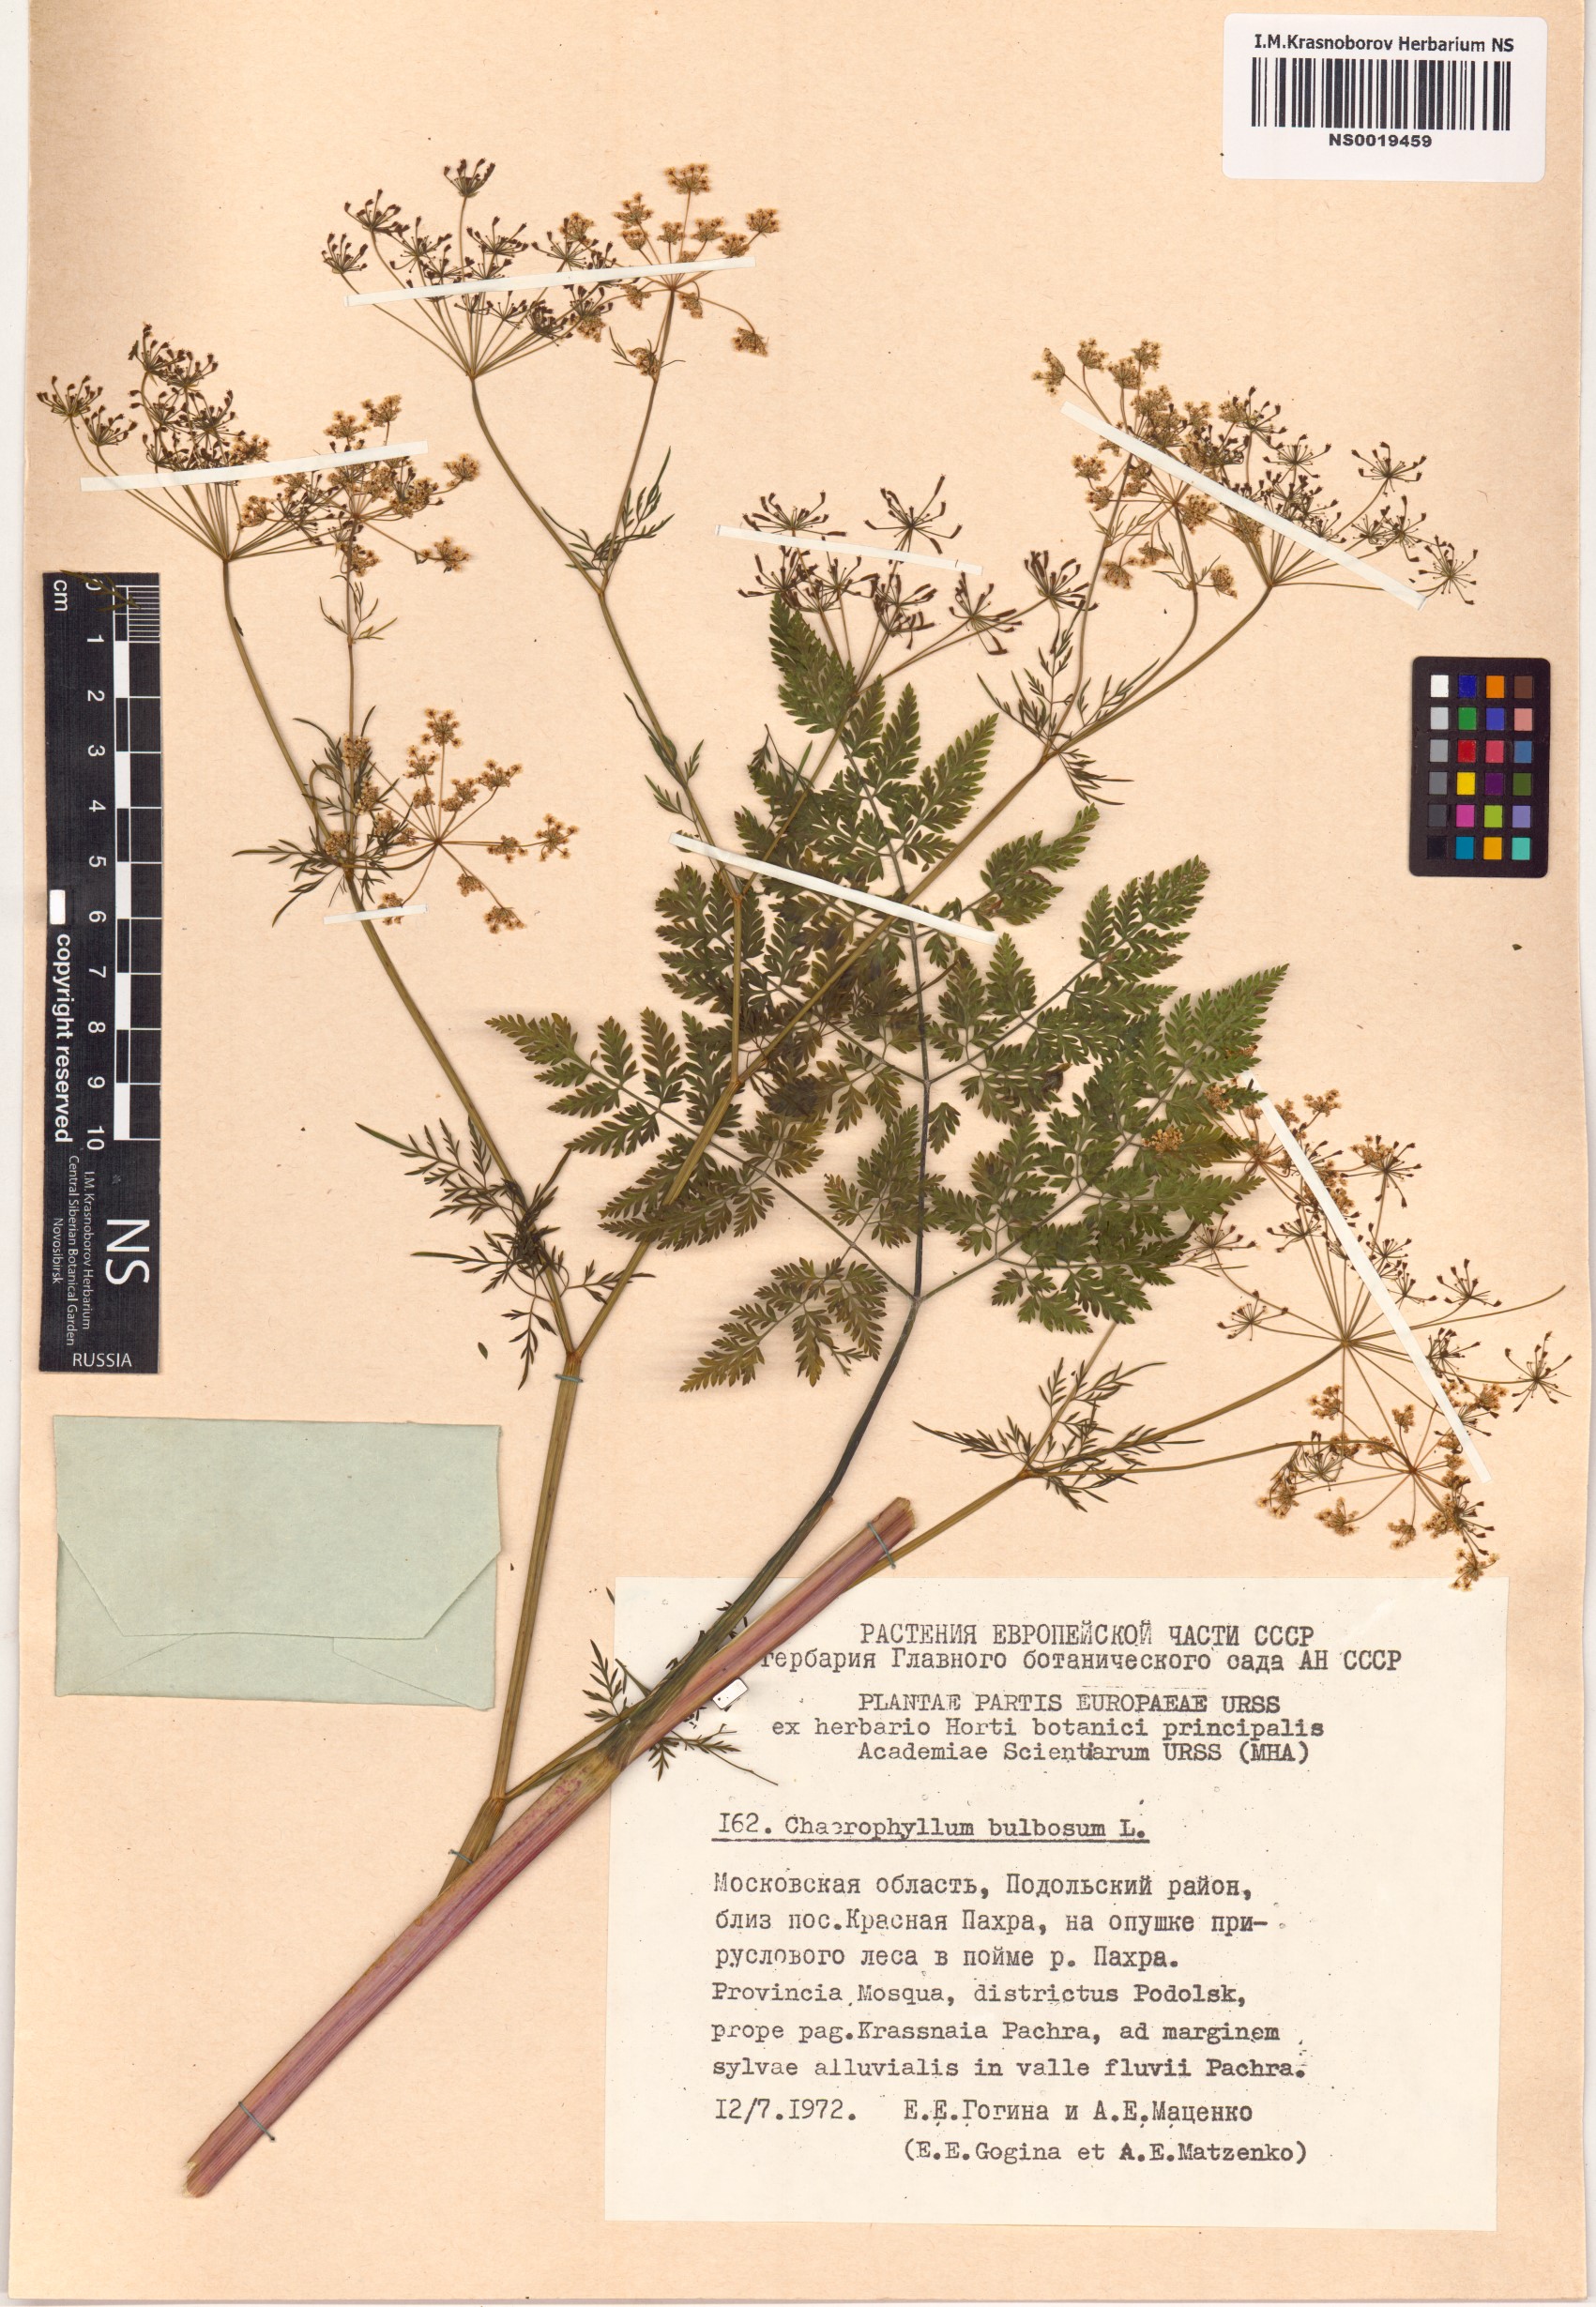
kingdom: Plantae
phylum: Tracheophyta
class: Magnoliopsida
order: Apiales
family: Apiaceae
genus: Chaerophyllum
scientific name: Chaerophyllum bulbosum
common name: Bulbous chervil
